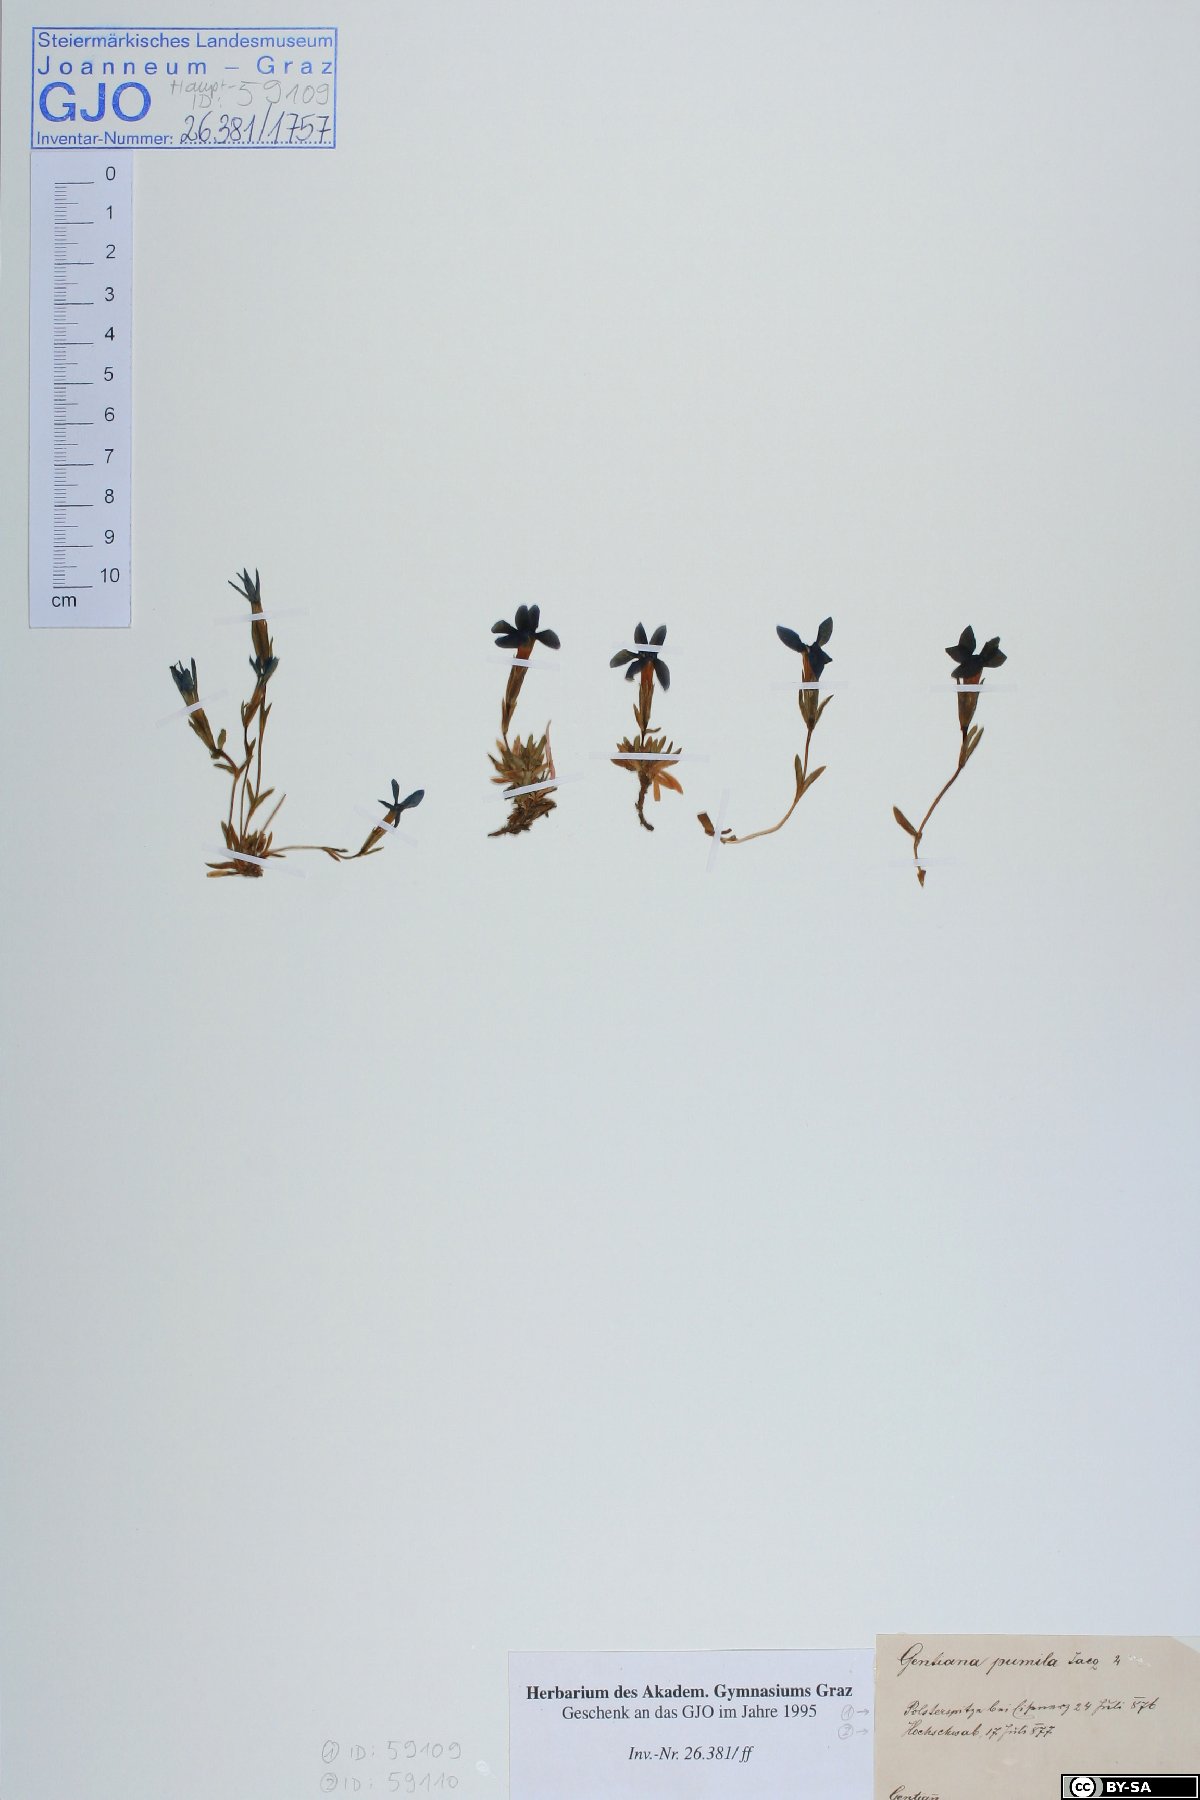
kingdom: Plantae
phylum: Tracheophyta
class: Magnoliopsida
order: Gentianales
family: Gentianaceae
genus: Gentiana
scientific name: Gentiana pumila
